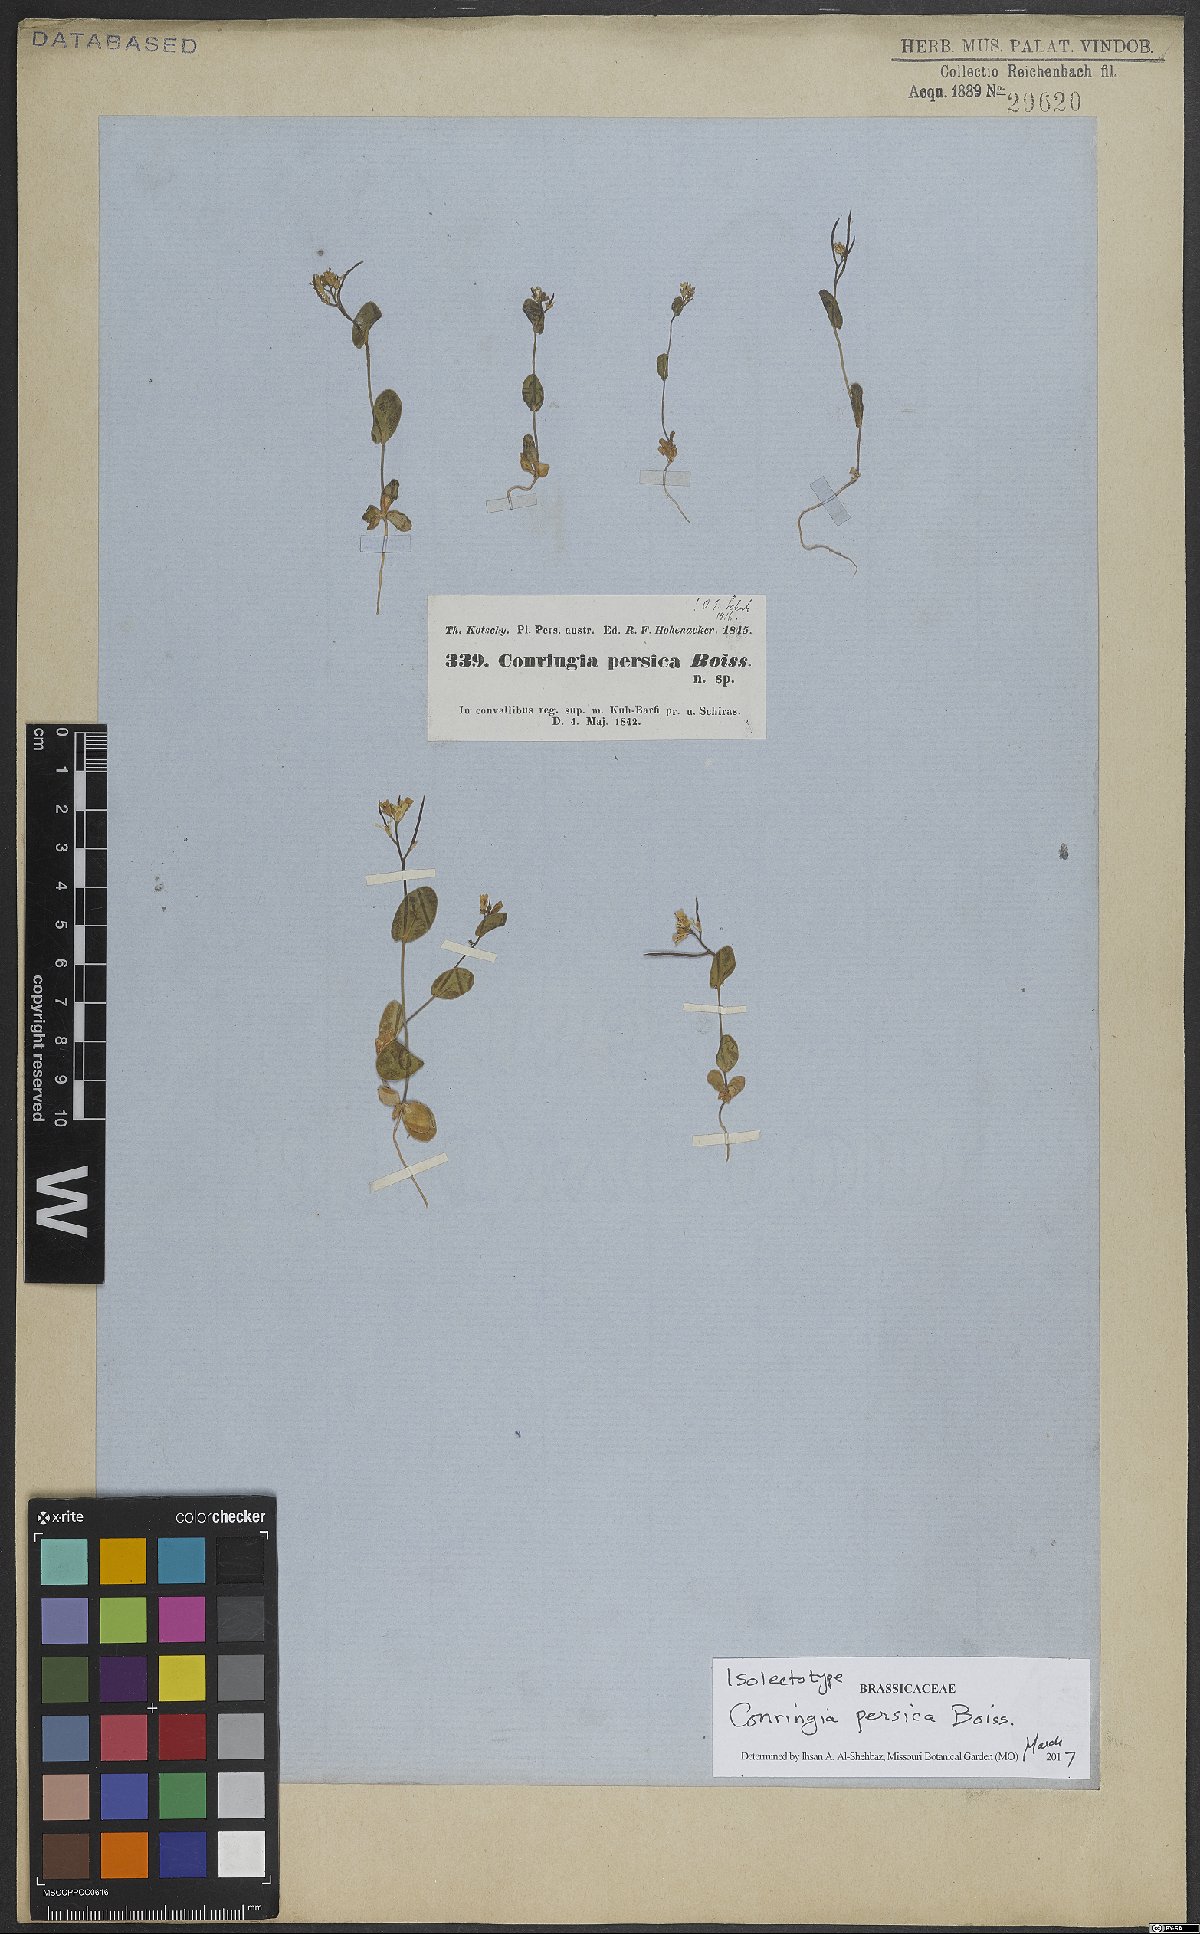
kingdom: Plantae
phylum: Tracheophyta
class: Magnoliopsida
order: Brassicales
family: Brassicaceae
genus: Conringia
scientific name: Conringia persica
